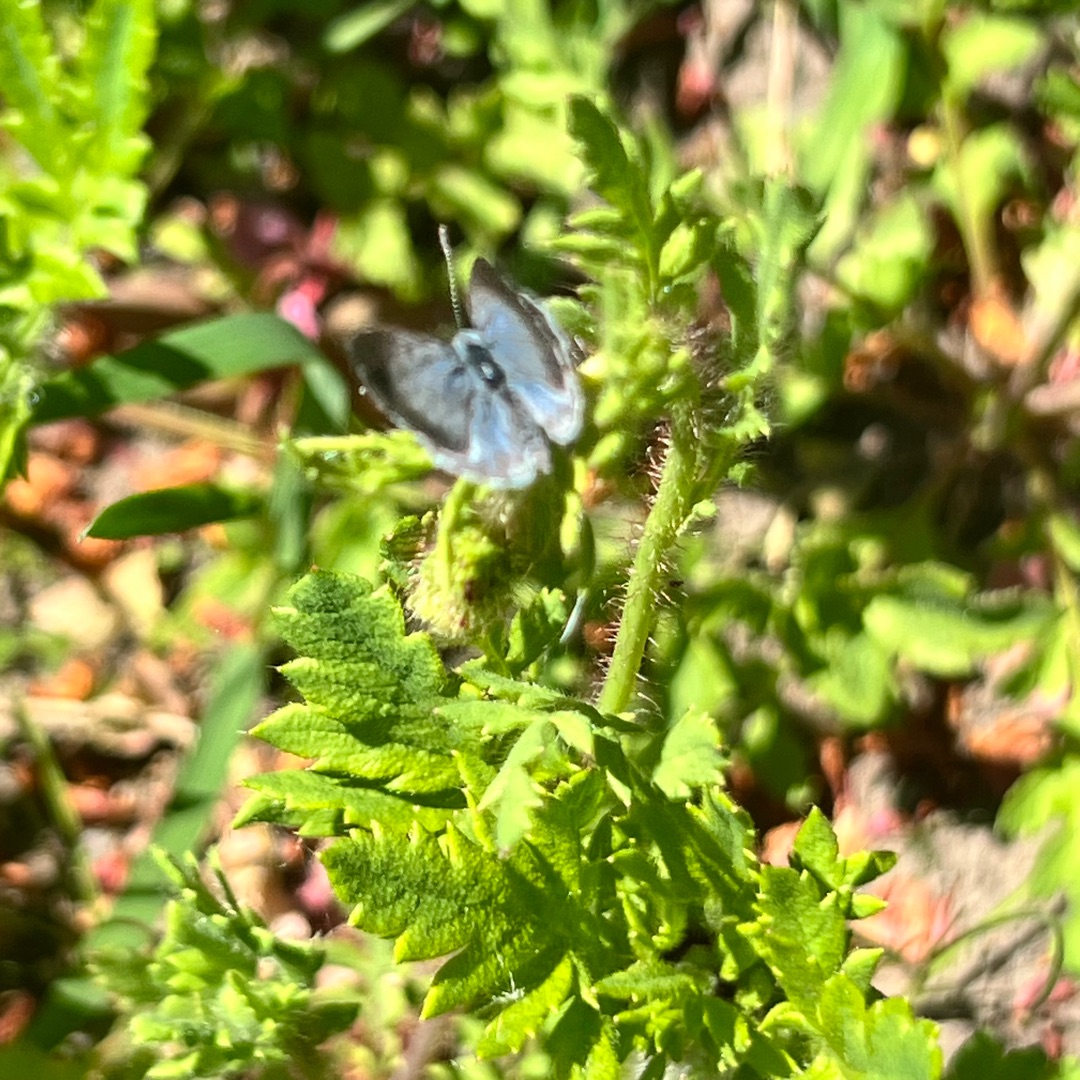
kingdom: Animalia
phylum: Arthropoda
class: Insecta
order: Lepidoptera
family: Lycaenidae
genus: Celastrina
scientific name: Celastrina argiolus
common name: Skovblåfugl
